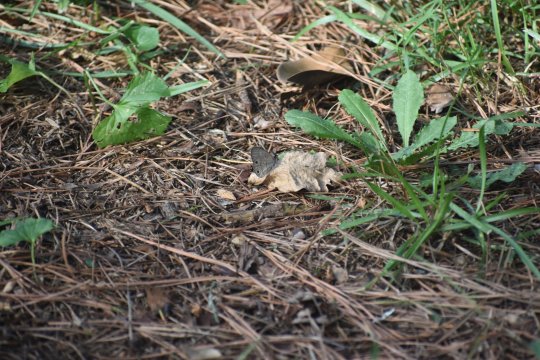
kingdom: Animalia
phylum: Arthropoda
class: Insecta
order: Lepidoptera
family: Nymphalidae
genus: Hermeuptychia
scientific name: Hermeuptychia hermes
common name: Carolina Satyr
